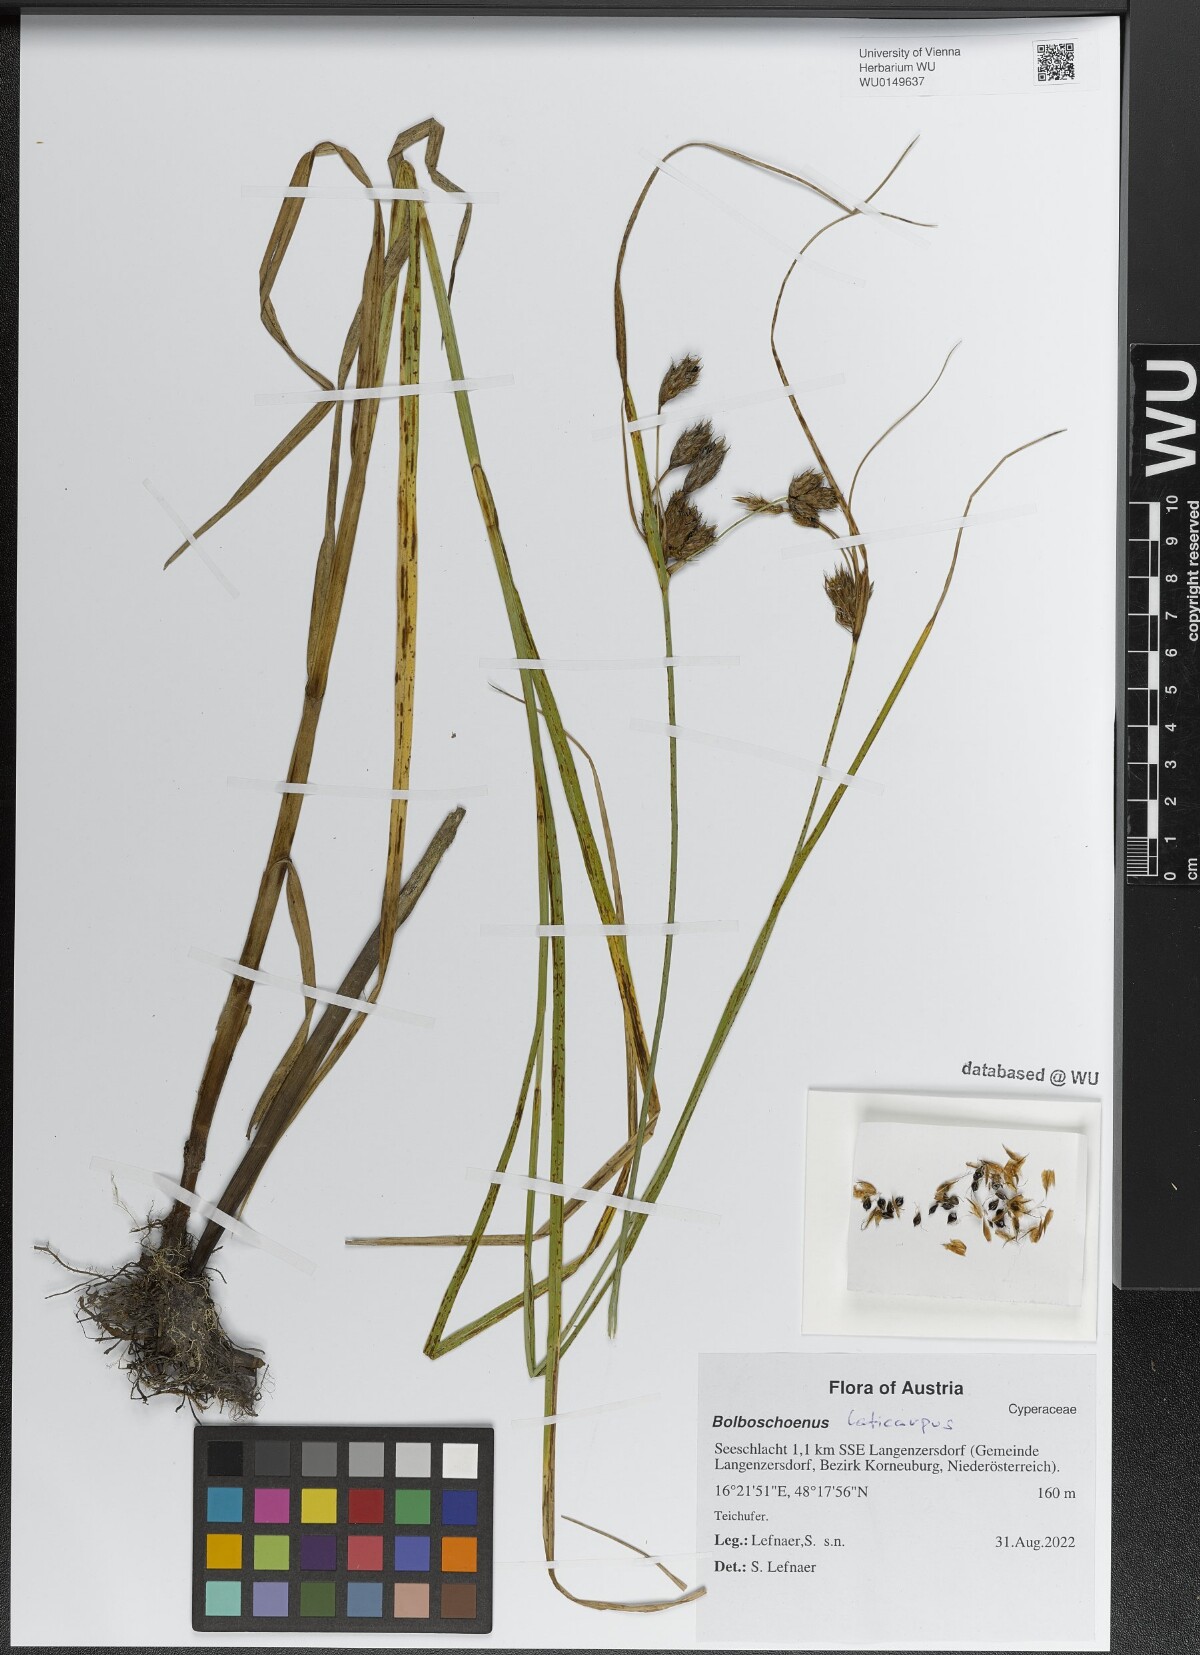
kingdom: Plantae
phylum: Tracheophyta
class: Liliopsida
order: Poales
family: Cyperaceae
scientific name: Cyperaceae
